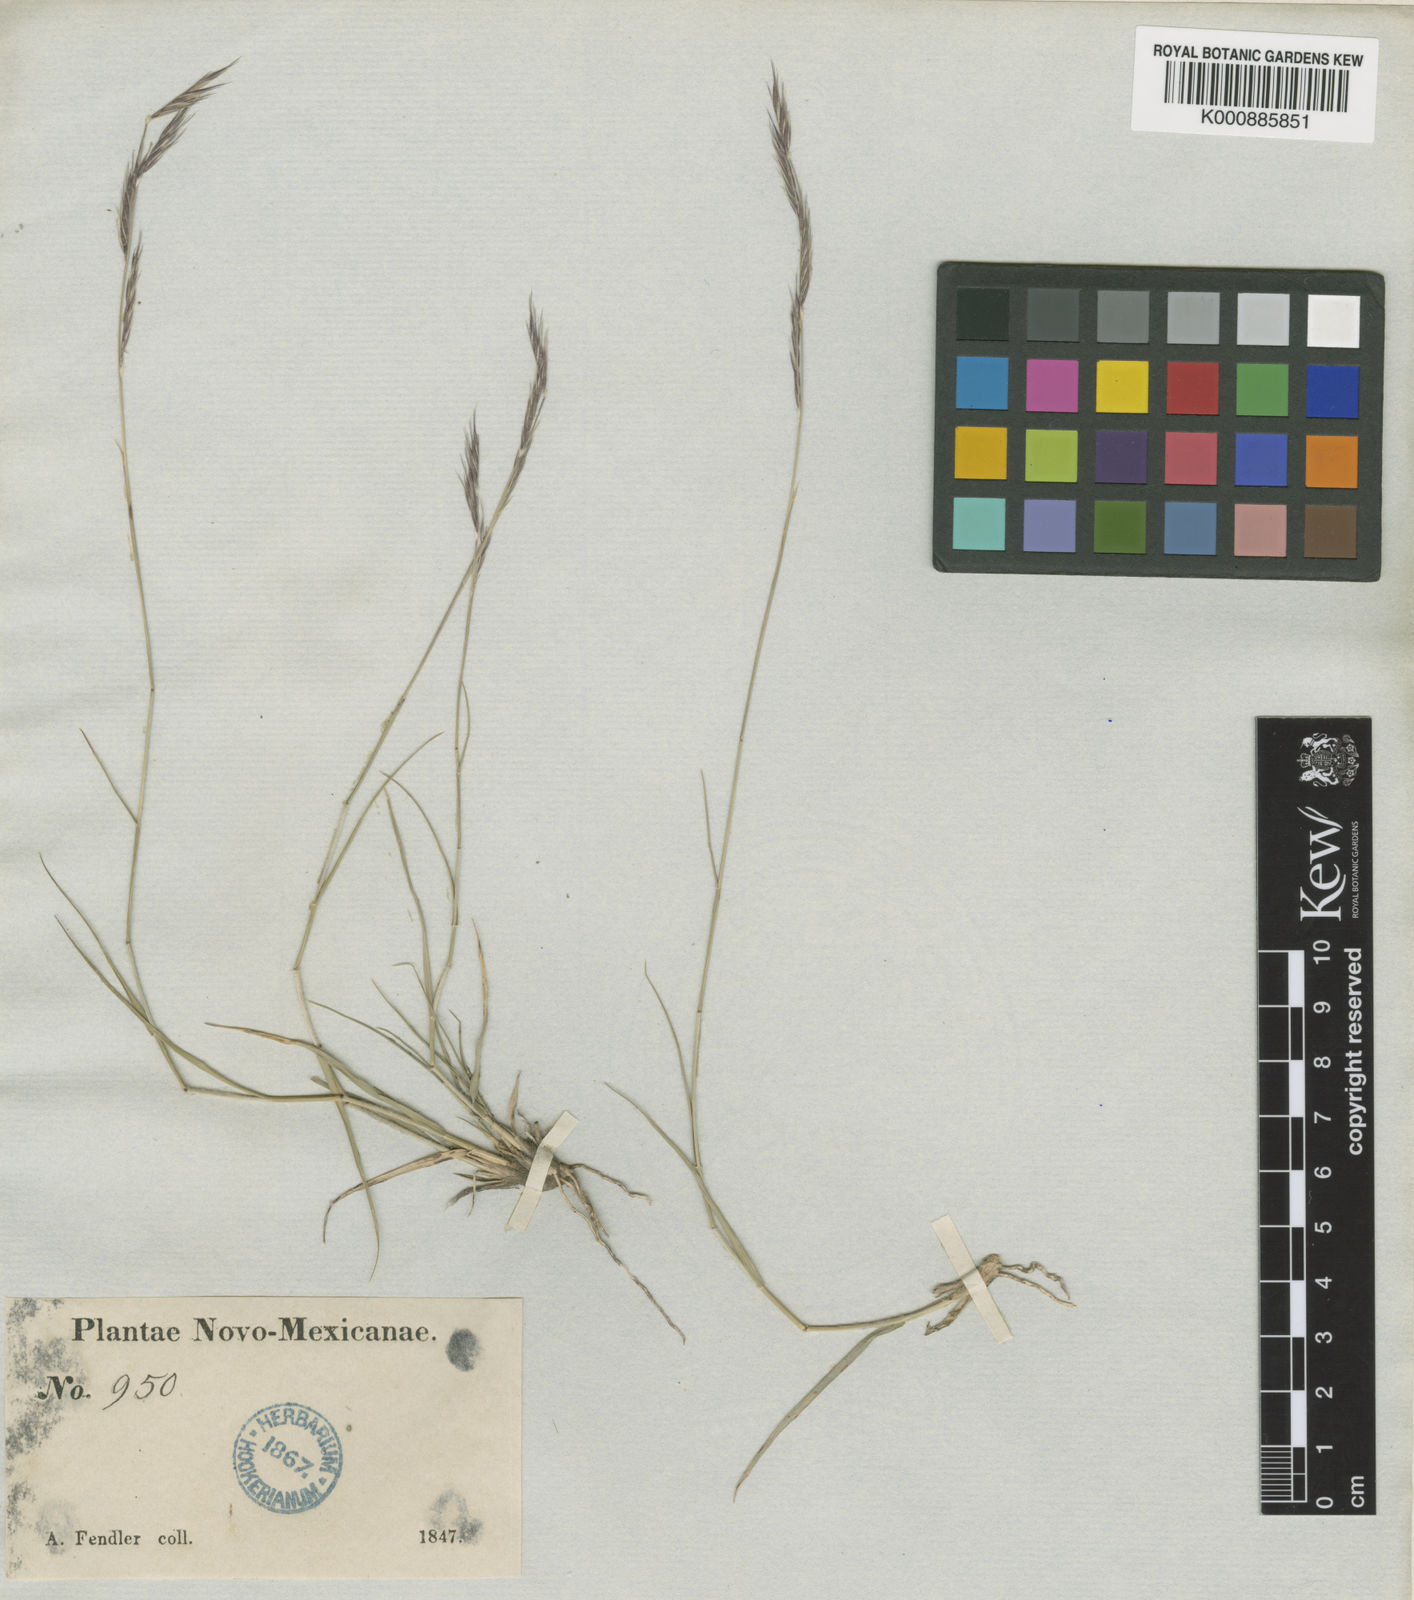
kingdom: Plantae
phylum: Tracheophyta
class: Liliopsida
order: Poales
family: Poaceae
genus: Bouteloua
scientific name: Bouteloua eriopoda
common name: Woolly foot grama
